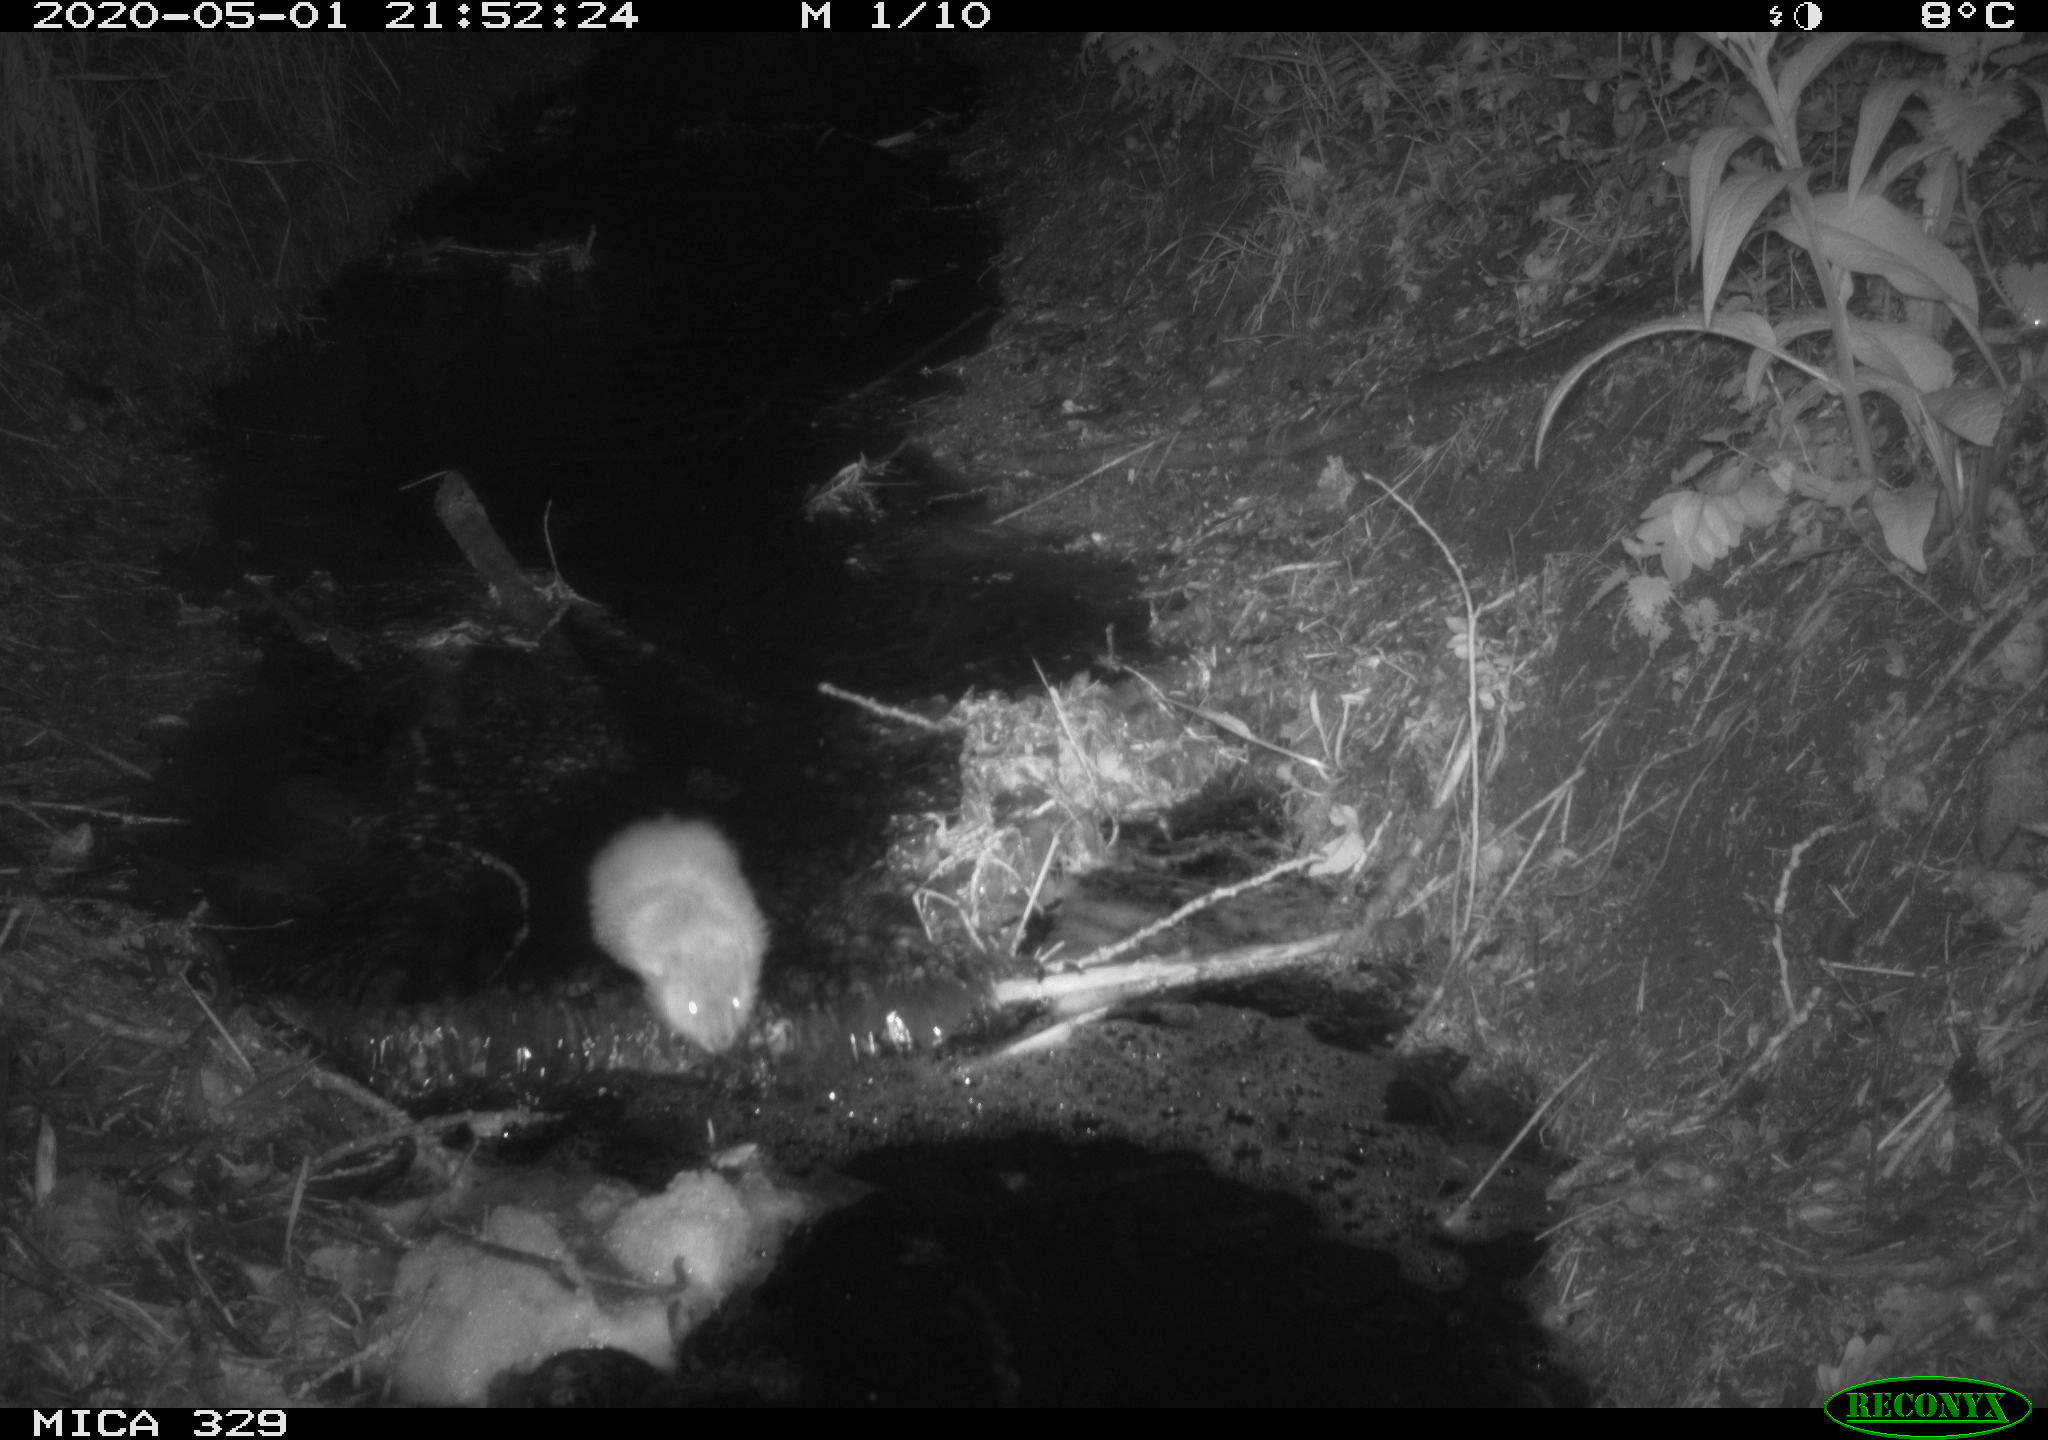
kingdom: Animalia
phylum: Chordata
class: Mammalia
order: Rodentia
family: Cricetidae
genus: Ondatra
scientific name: Ondatra zibethicus
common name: Muskrat
